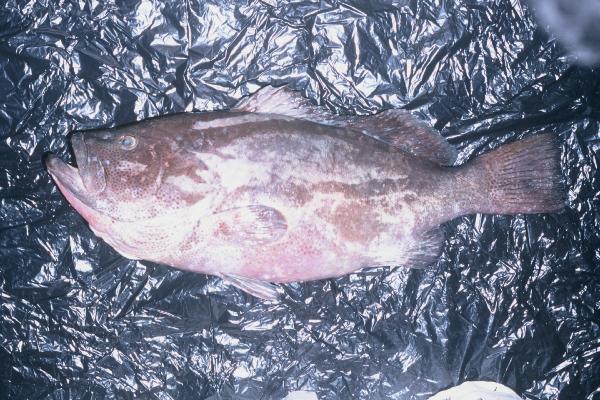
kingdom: Animalia
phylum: Chordata
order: Perciformes
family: Serranidae
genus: Epinephelus
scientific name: Epinephelus multinotatus
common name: Rankin's cod
